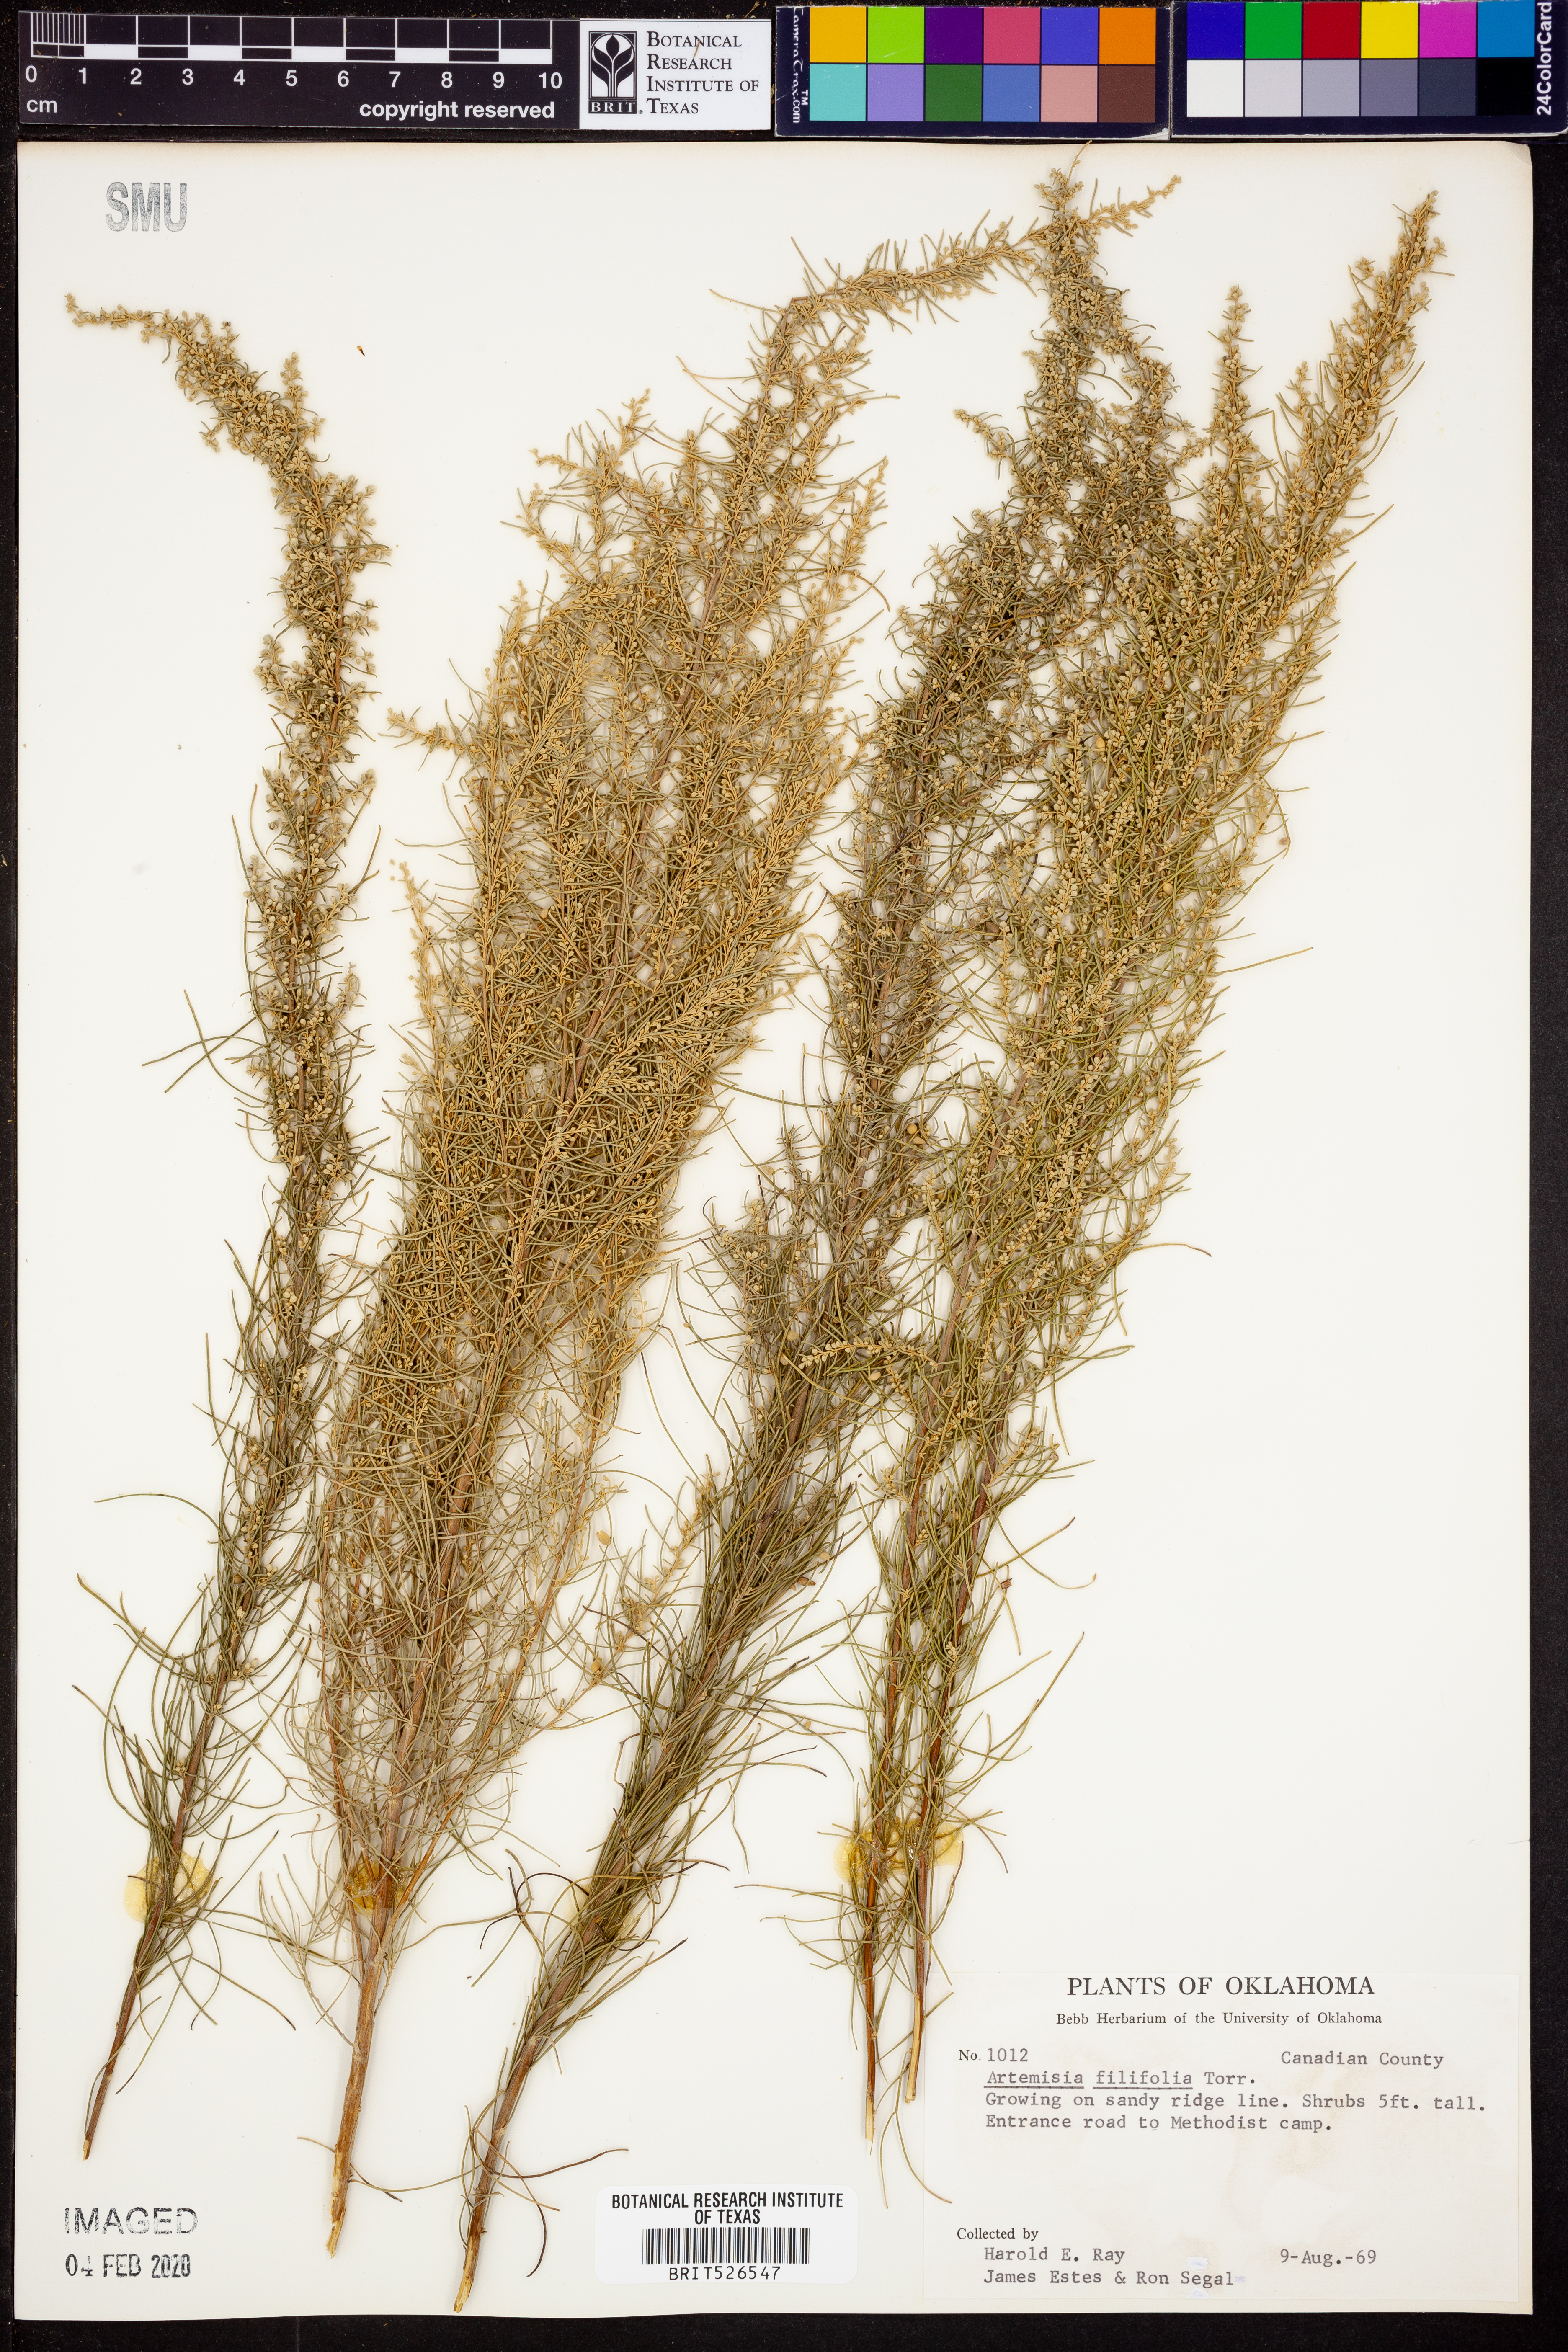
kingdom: Plantae
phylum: Tracheophyta
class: Magnoliopsida
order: Asterales
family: Asteraceae
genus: Artemisia
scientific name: Artemisia filifolia
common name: Sand-sage
